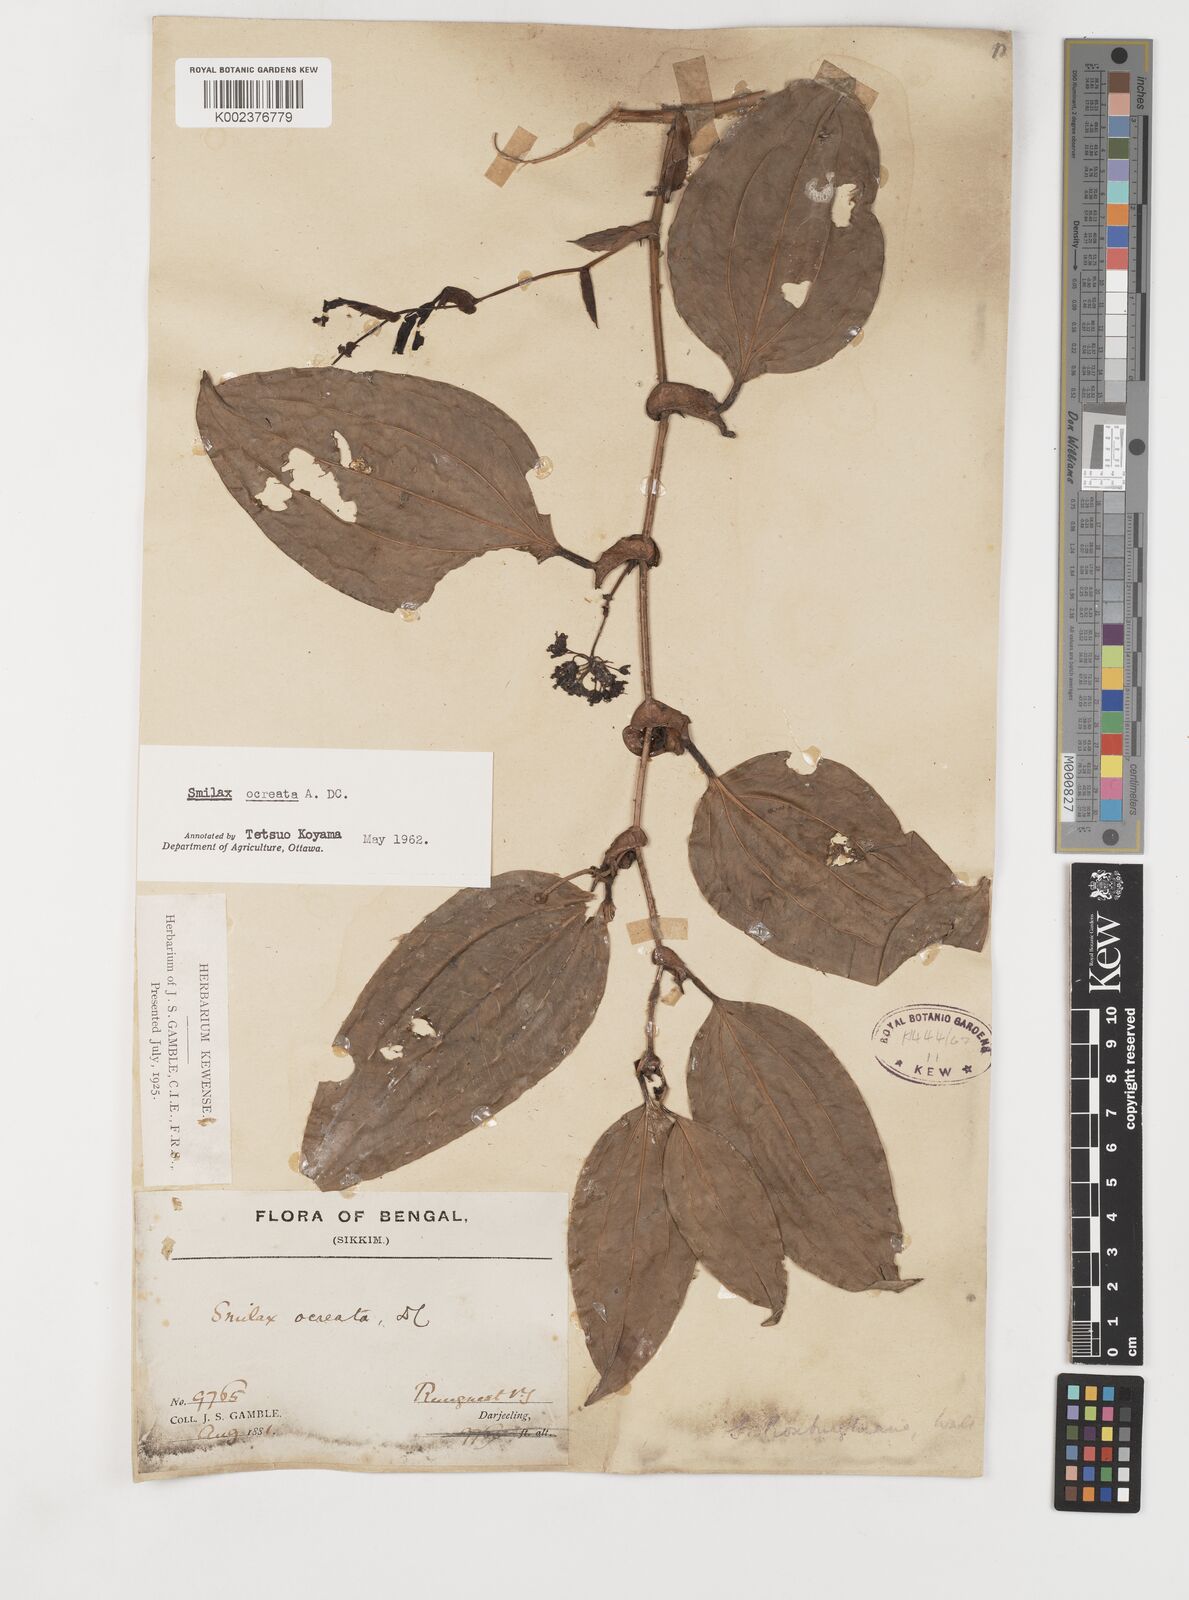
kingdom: Plantae
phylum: Tracheophyta
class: Liliopsida
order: Liliales
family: Smilacaceae
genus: Smilax
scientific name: Smilax ocreata
